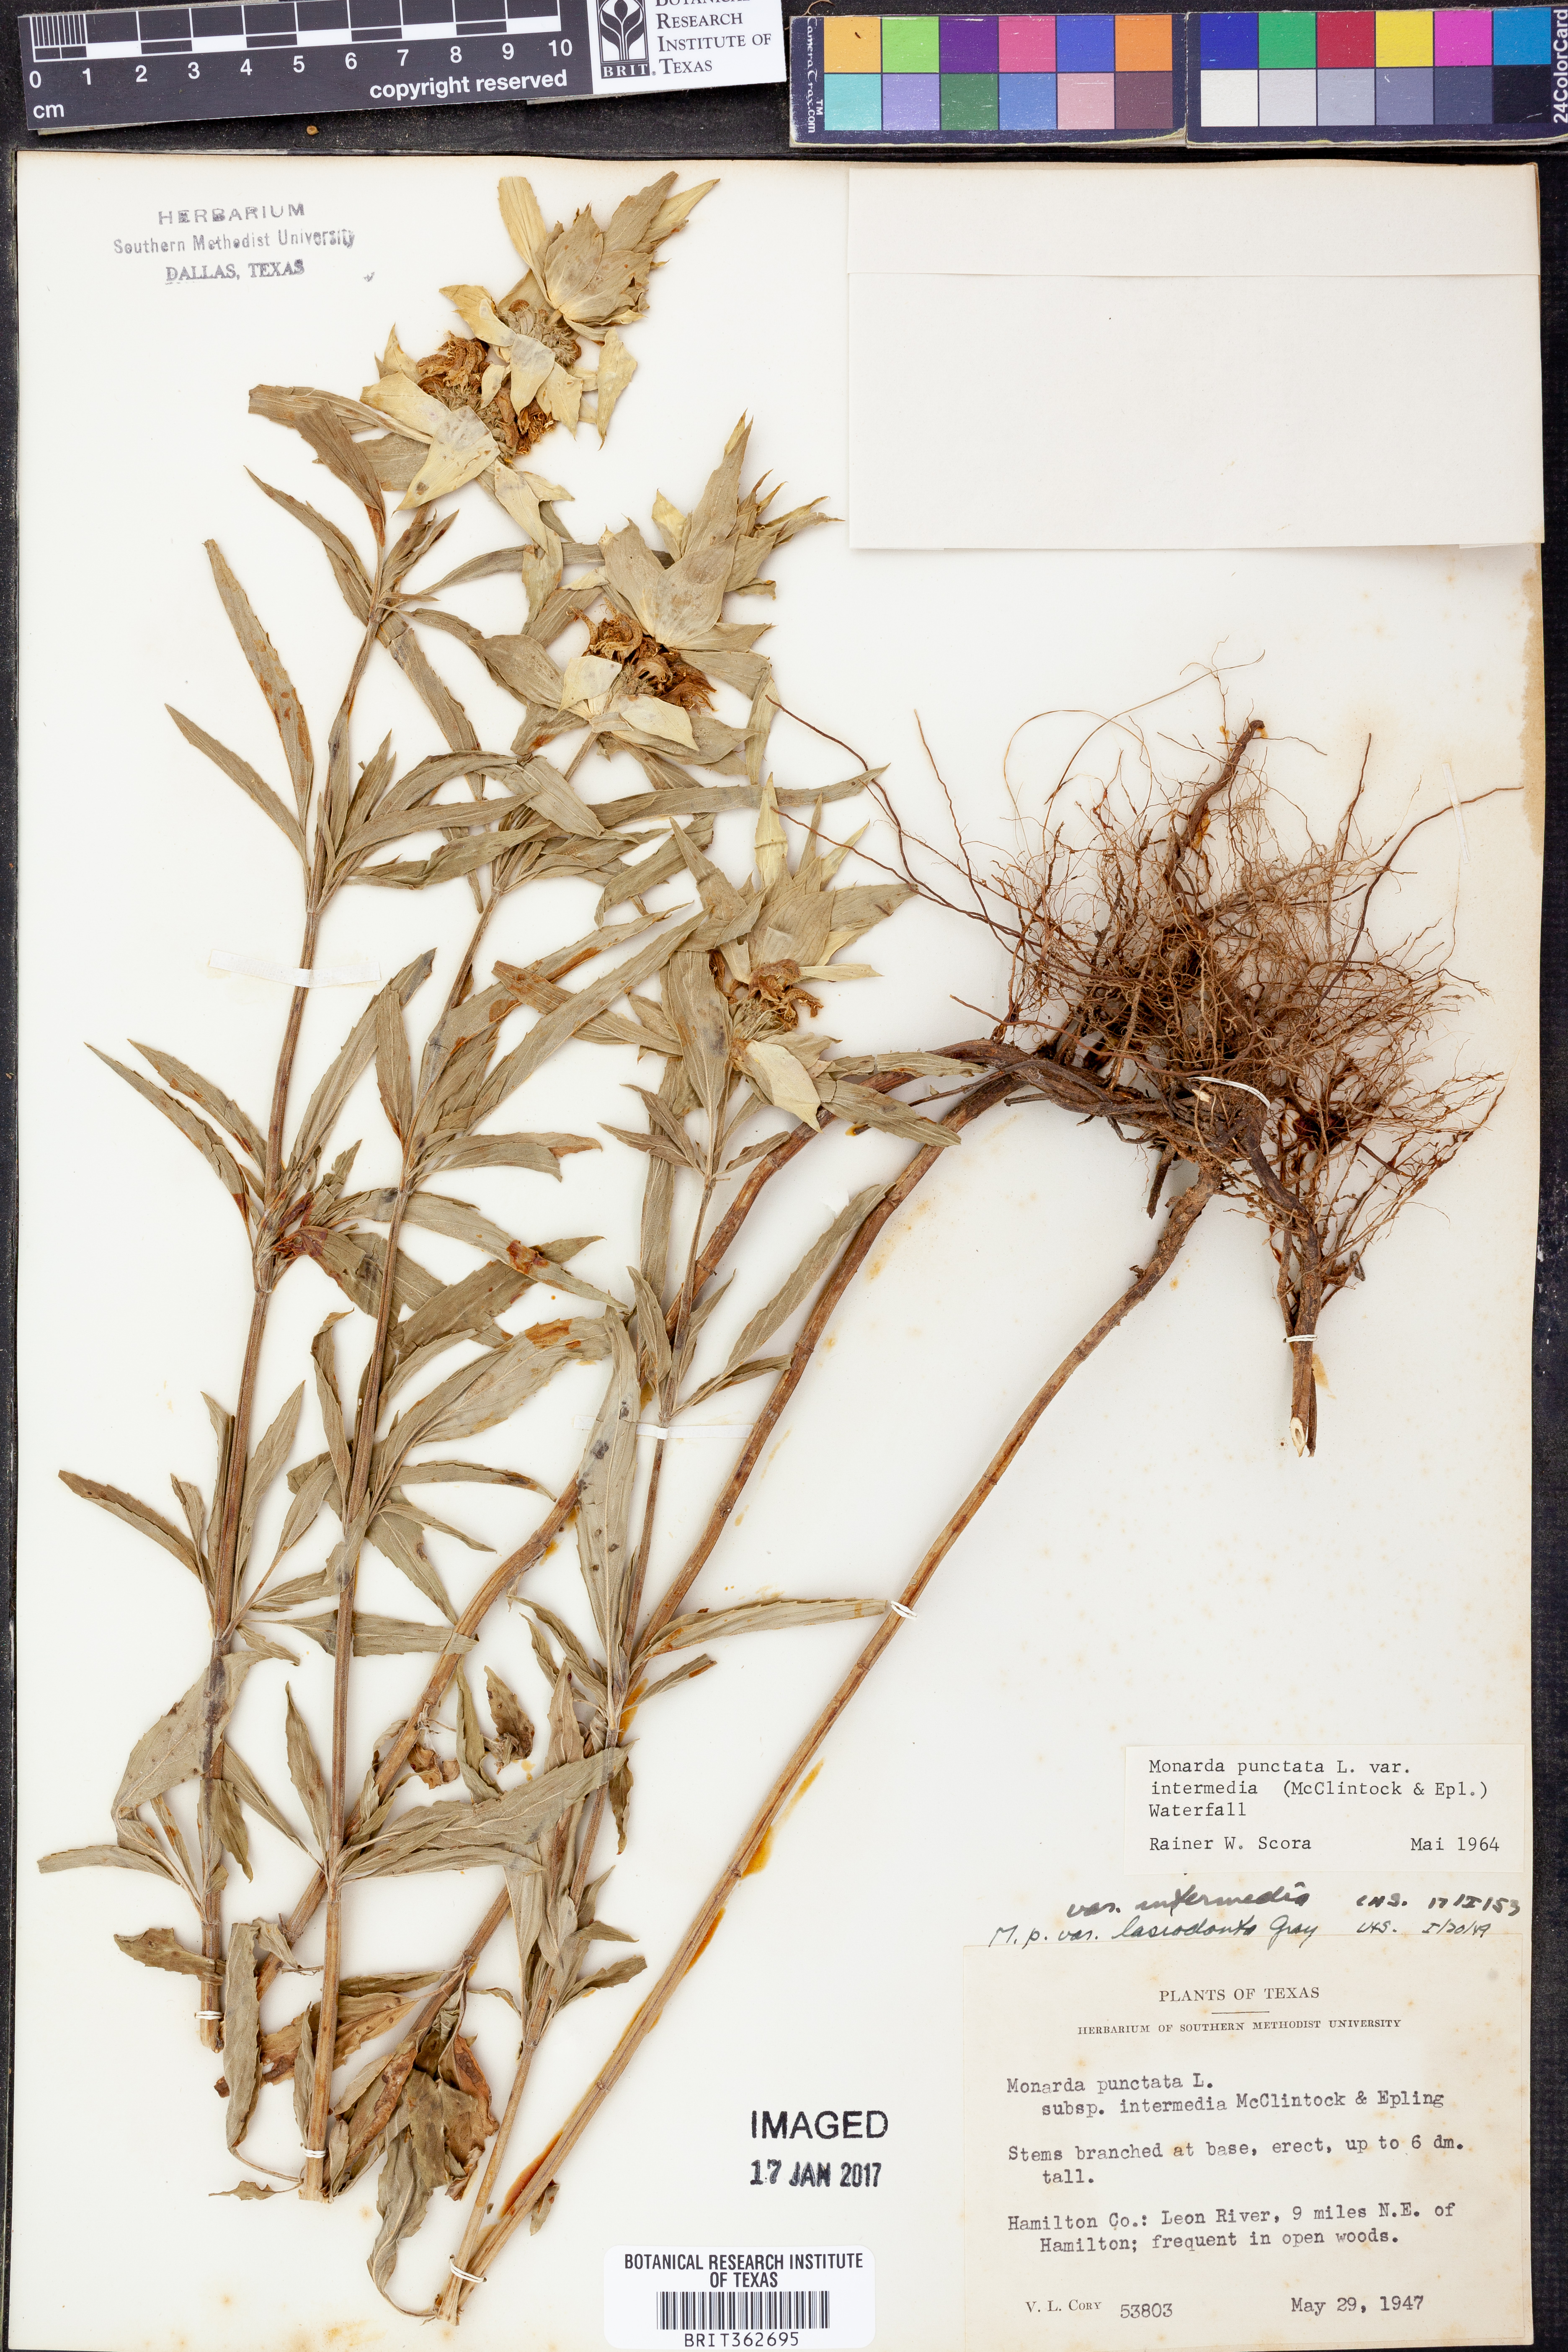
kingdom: Plantae
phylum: Tracheophyta
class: Magnoliopsida
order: Lamiales
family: Lamiaceae
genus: Monarda
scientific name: Monarda punctata
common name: Dotted monarda
